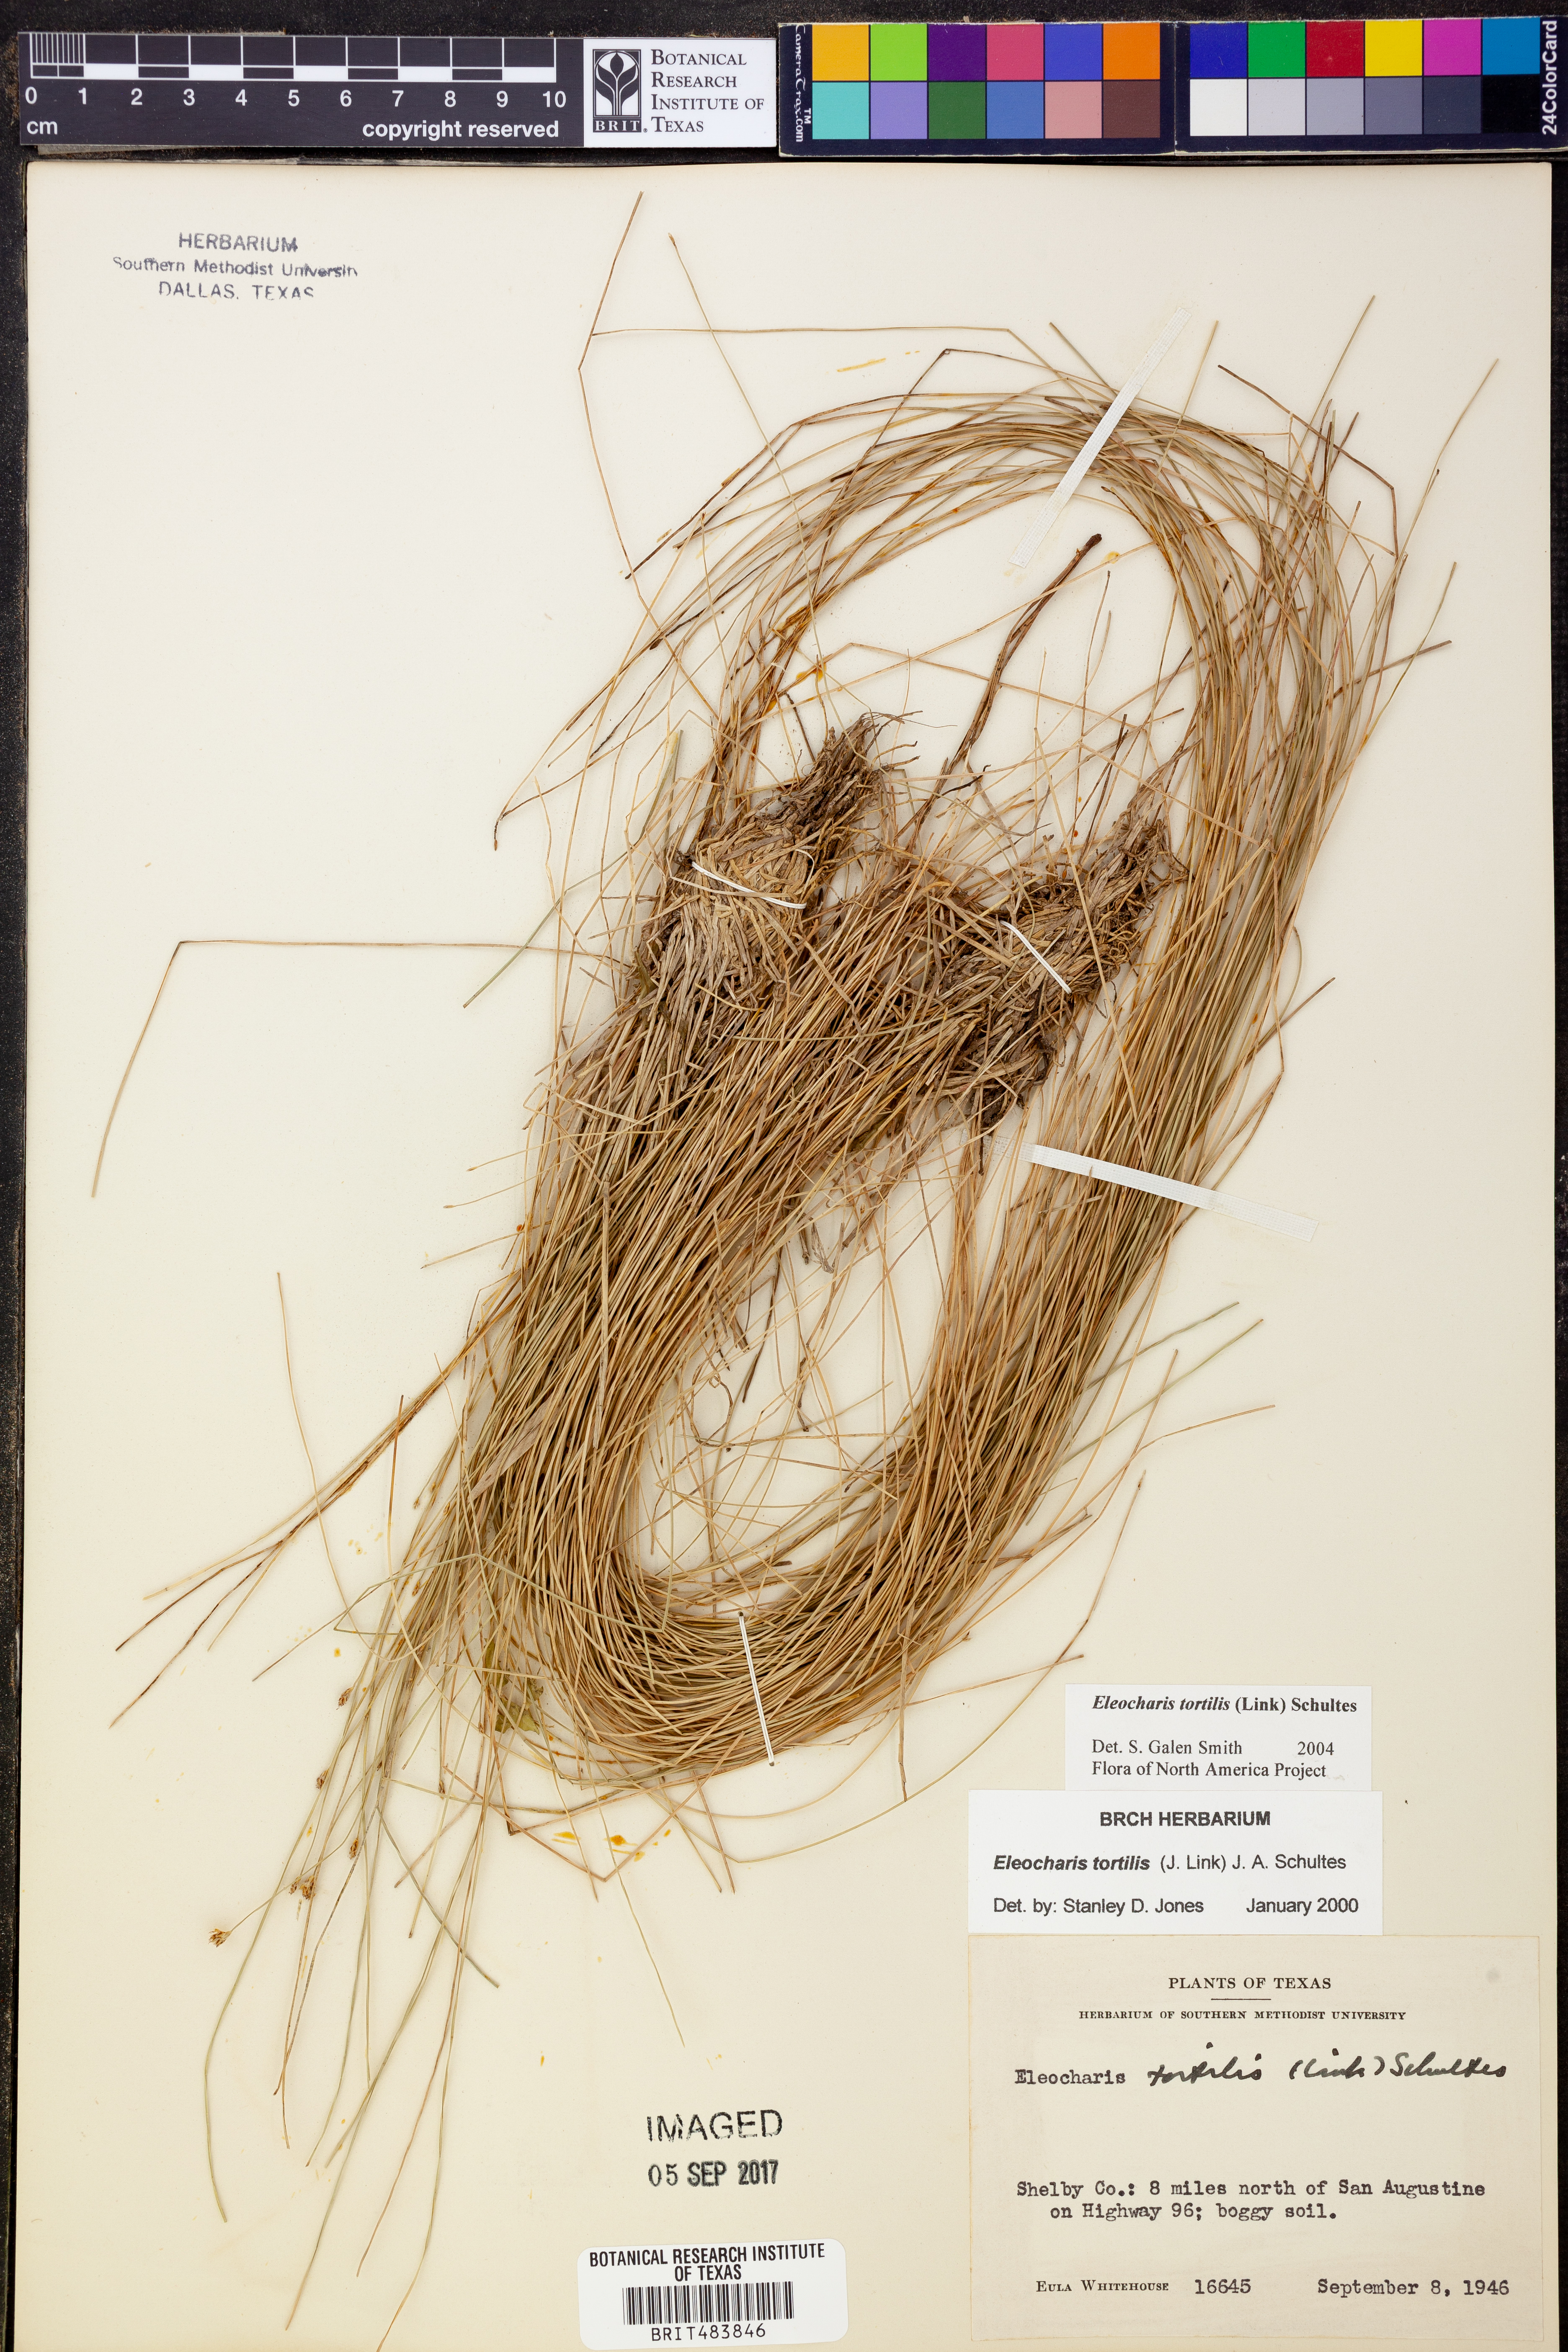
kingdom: Plantae
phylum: Tracheophyta
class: Liliopsida
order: Poales
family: Cyperaceae
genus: Eleocharis
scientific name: Eleocharis tortilis
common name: Twisted spike sedge
